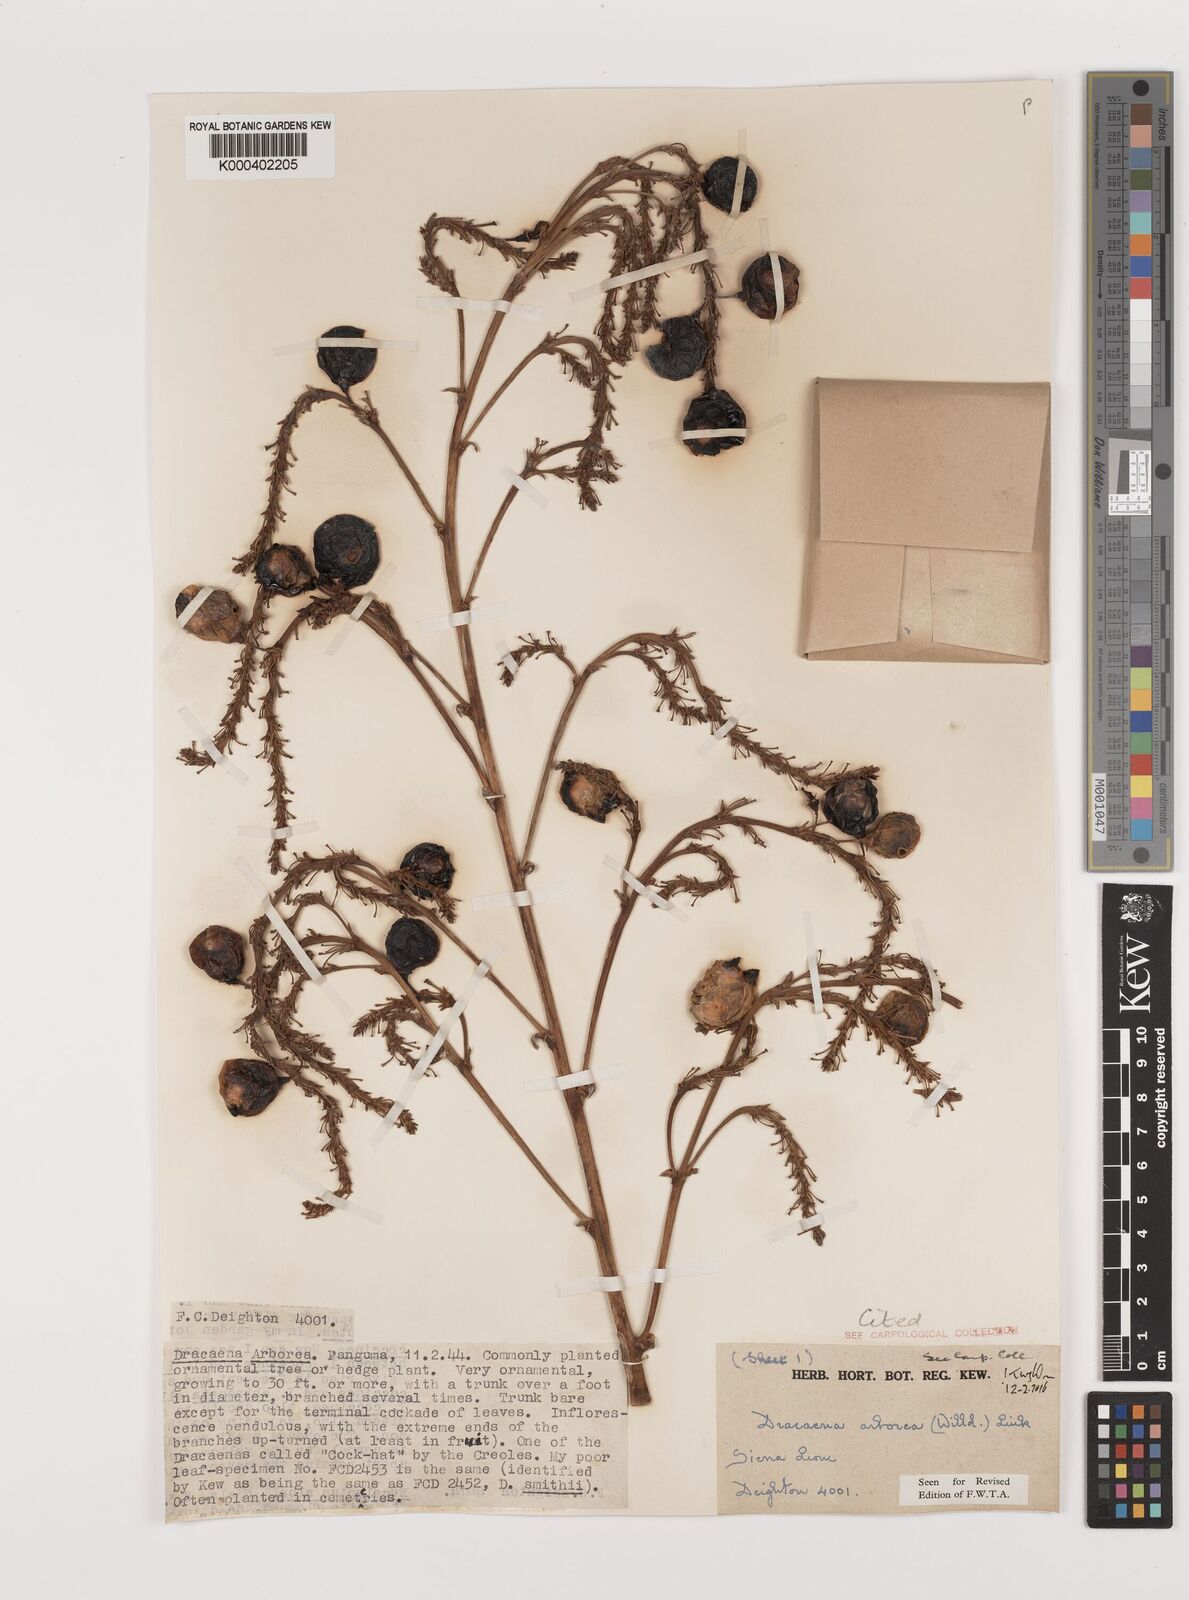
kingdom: Plantae
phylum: Tracheophyta
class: Liliopsida
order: Asparagales
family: Asparagaceae
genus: Dracaena
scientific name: Dracaena fragrans
